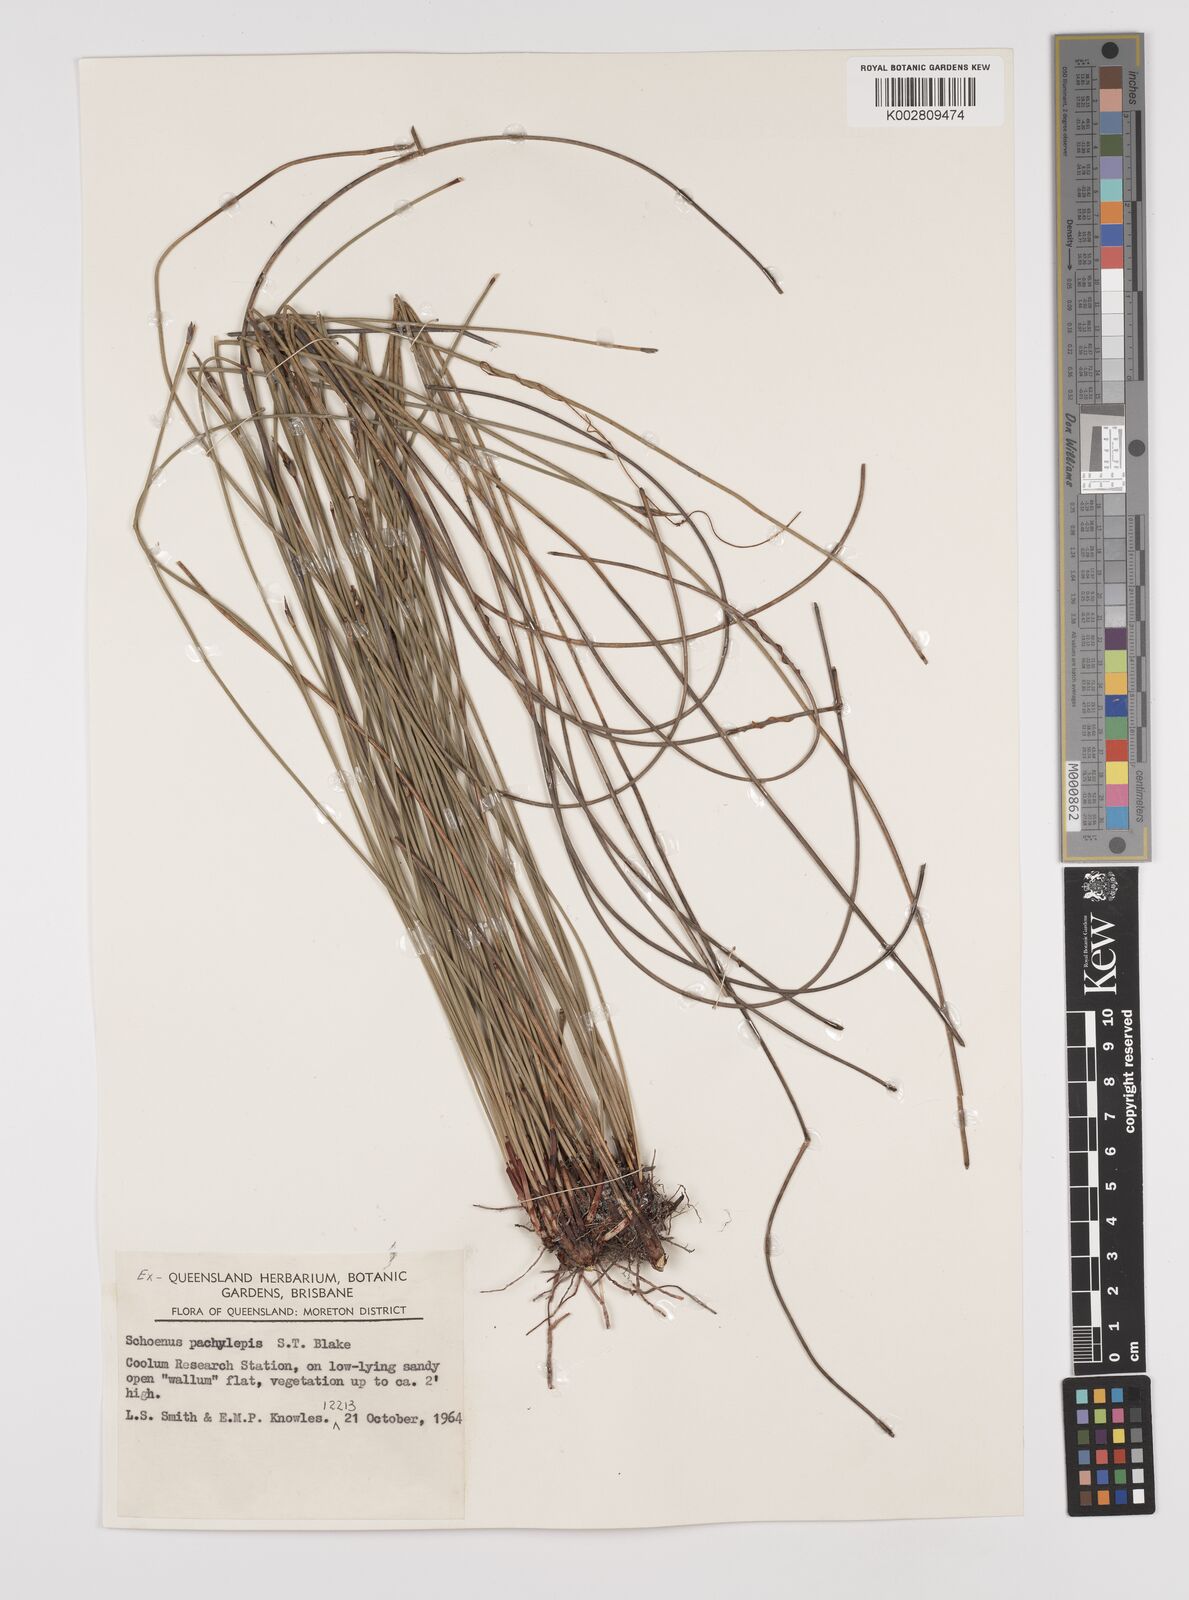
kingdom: Plantae
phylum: Tracheophyta
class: Liliopsida
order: Poales
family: Cyperaceae
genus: Schoenus
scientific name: Schoenus lepidosperma
